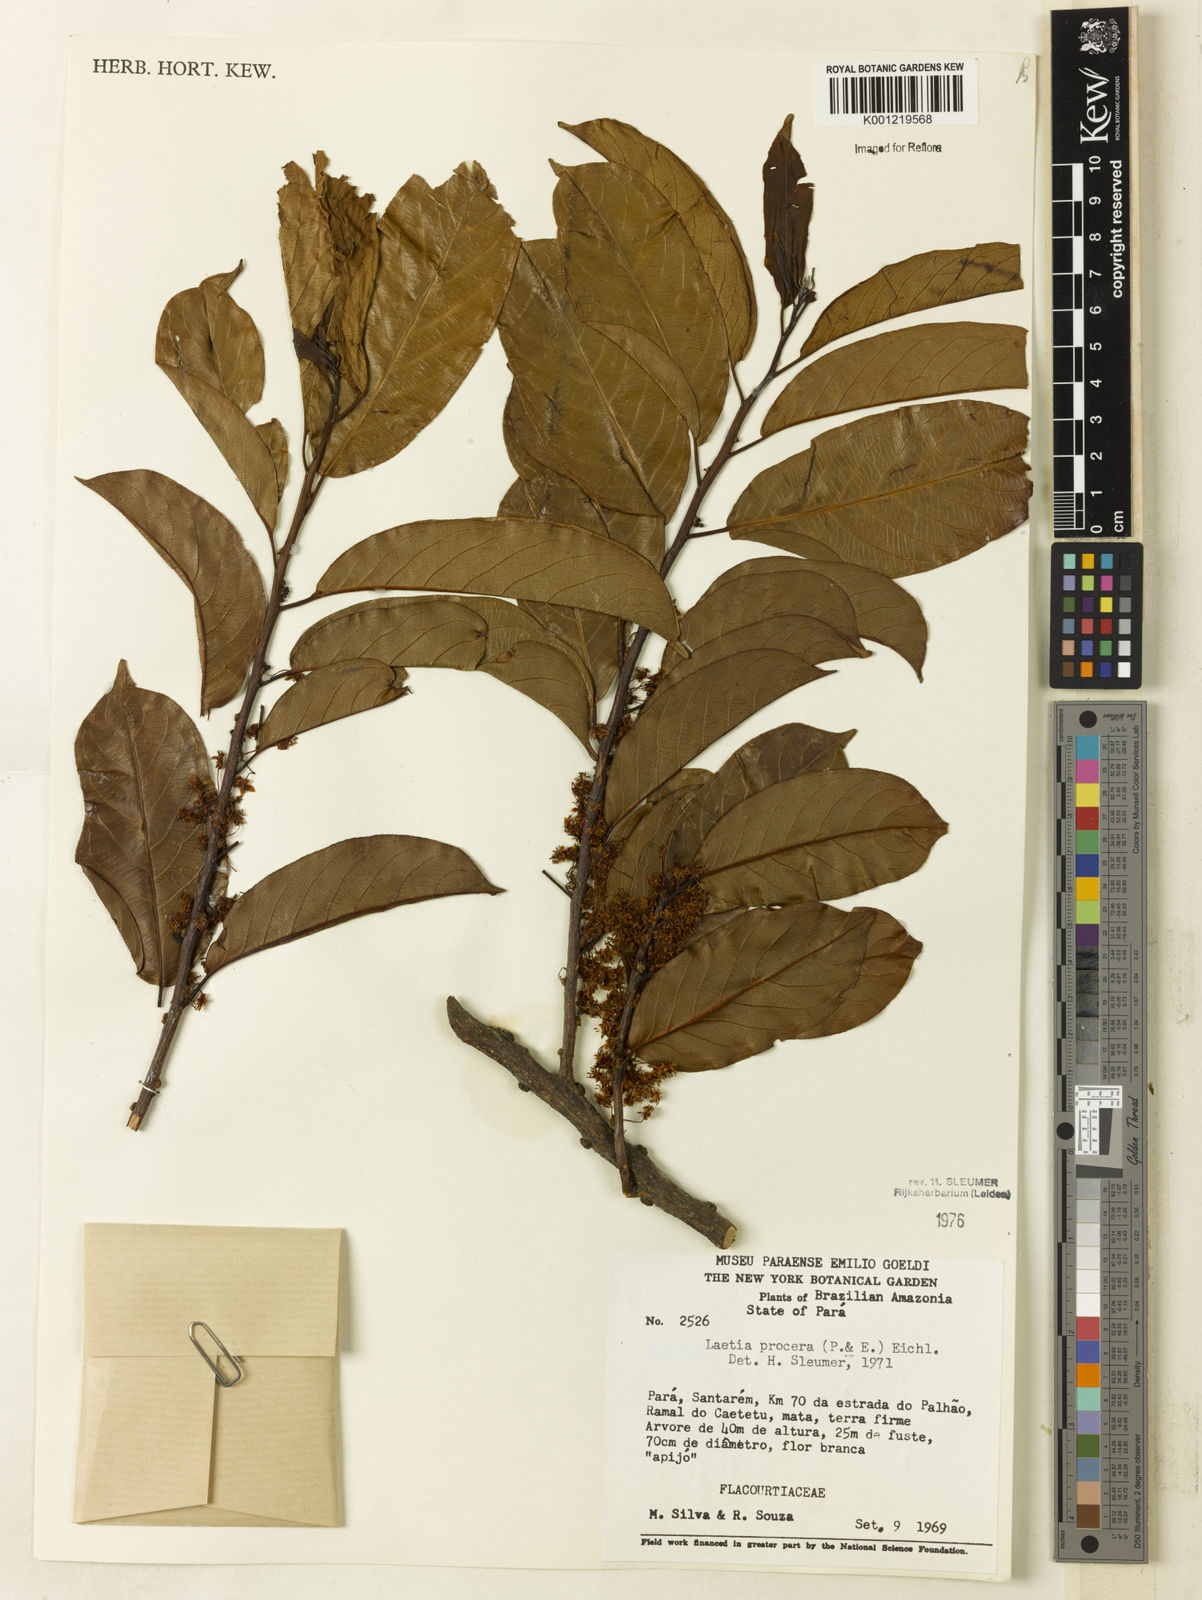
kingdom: Plantae
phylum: Tracheophyta
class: Magnoliopsida
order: Malpighiales
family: Salicaceae
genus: Casearia
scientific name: Casearia bicolor
